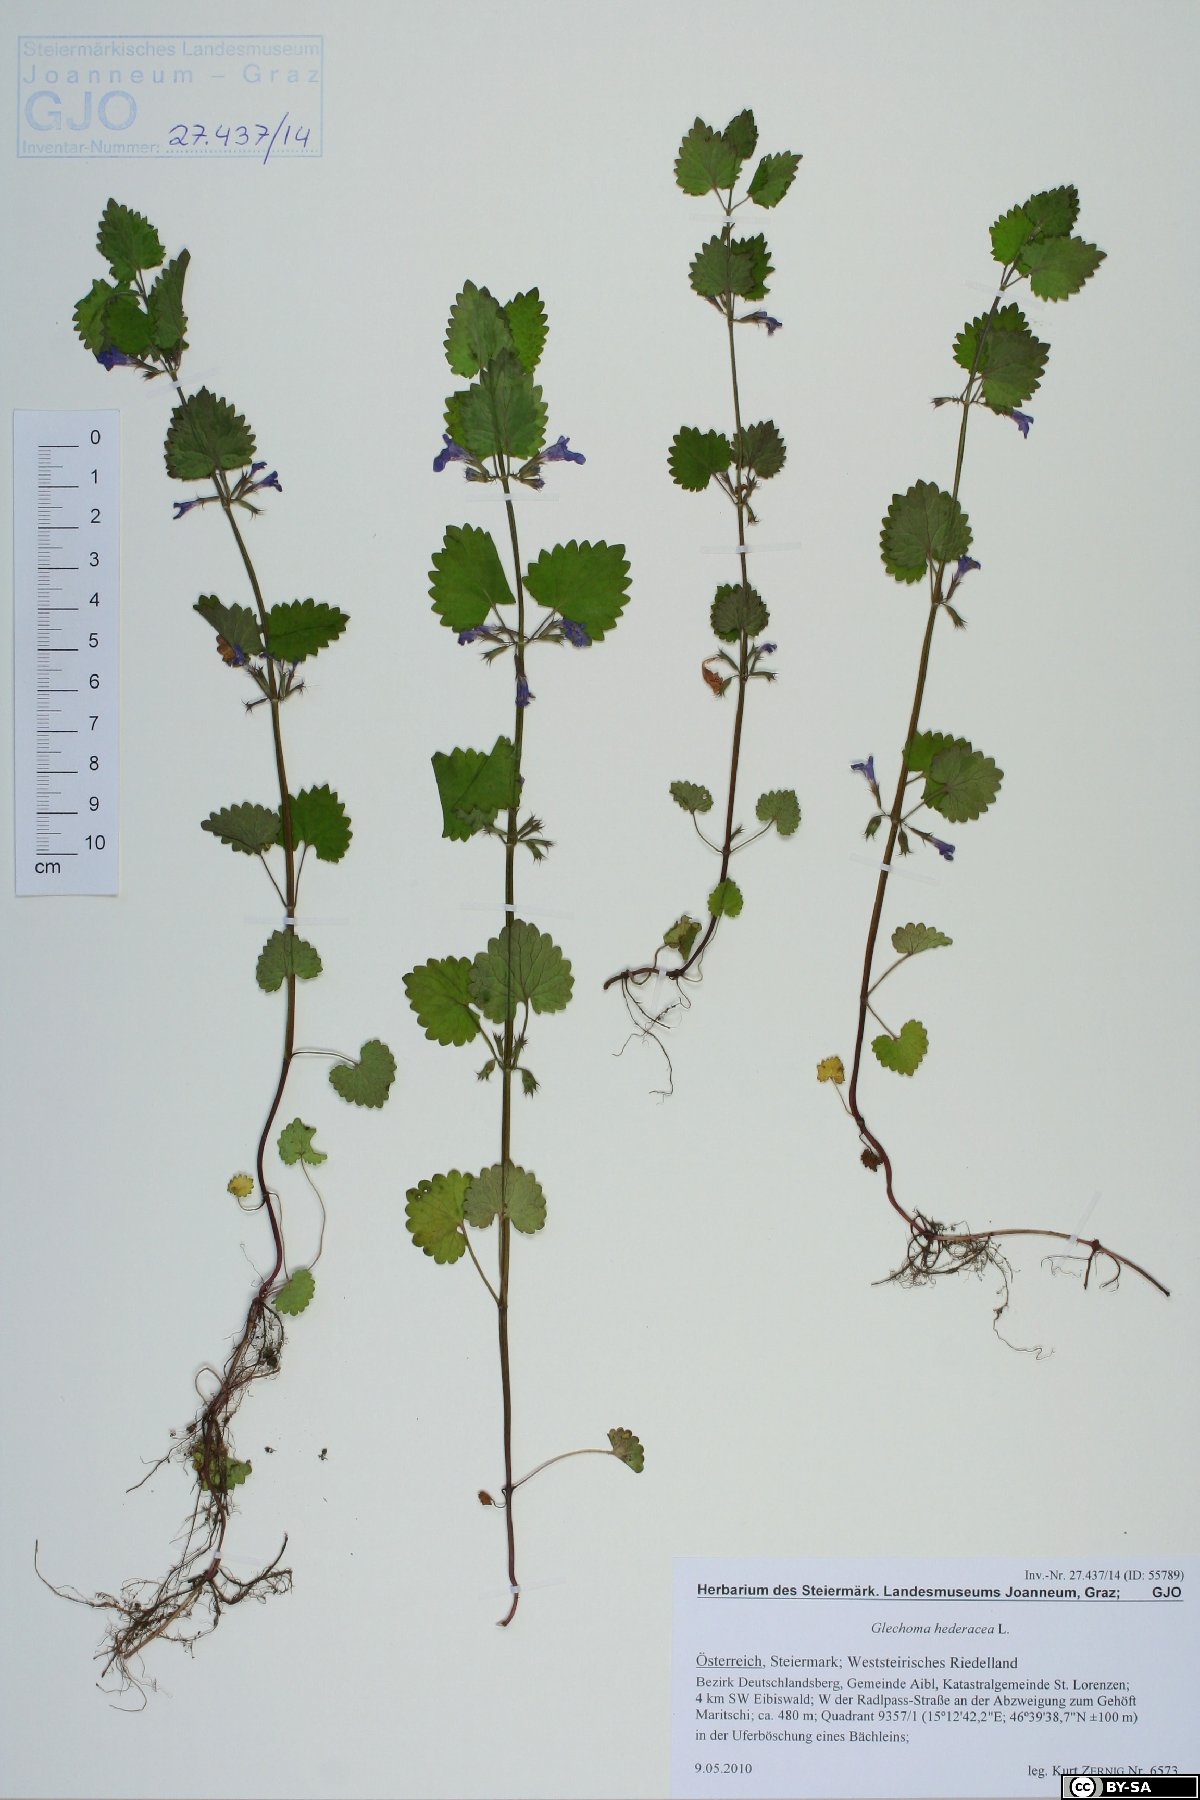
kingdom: Plantae
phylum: Tracheophyta
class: Magnoliopsida
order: Lamiales
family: Lamiaceae
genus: Glechoma
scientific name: Glechoma hederacea
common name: Ground ivy
